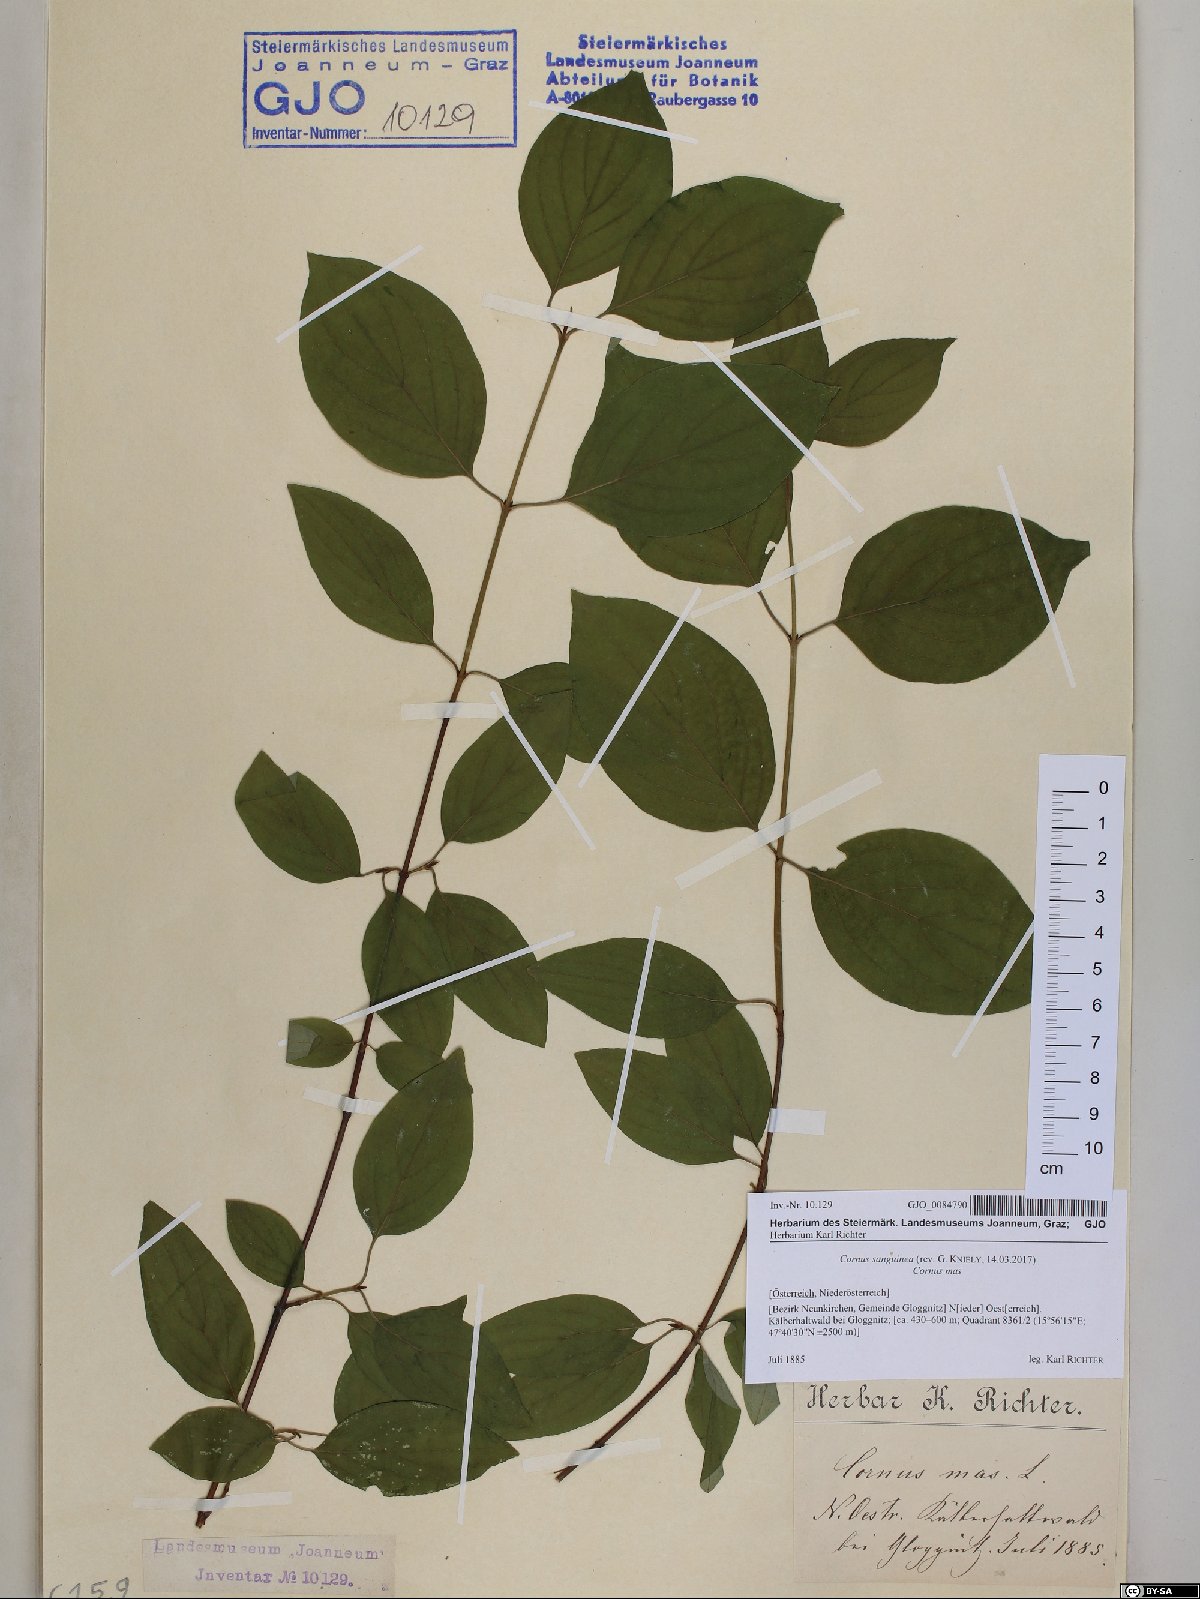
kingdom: Plantae
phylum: Tracheophyta
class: Magnoliopsida
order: Cornales
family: Cornaceae
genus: Cornus
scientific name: Cornus sanguinea
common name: Dogwood
